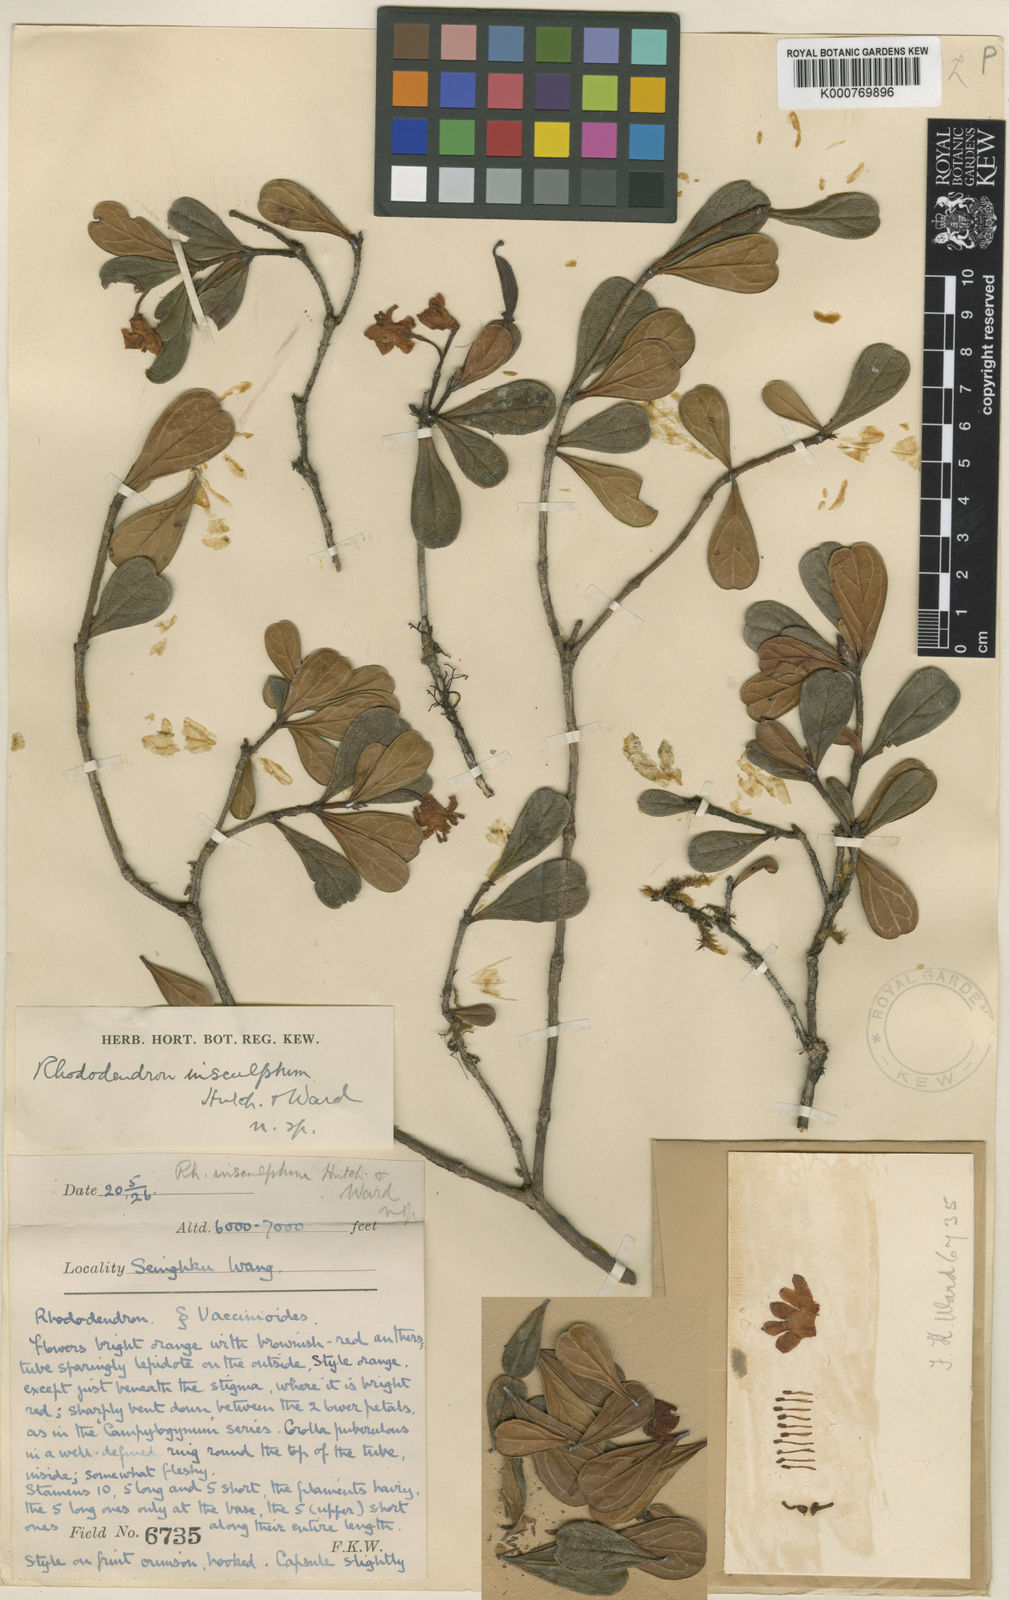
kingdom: Plantae
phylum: Tracheophyta
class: Magnoliopsida
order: Ericales
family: Ericaceae
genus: Rhododendron
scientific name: Rhododendron
